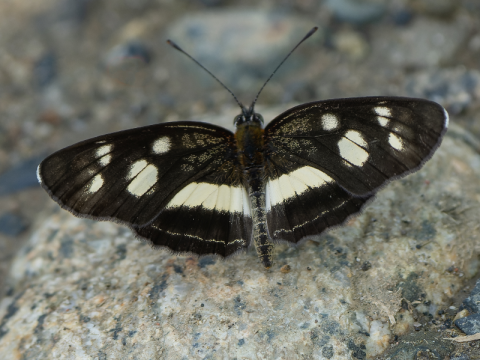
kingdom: Animalia
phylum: Arthropoda
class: Insecta
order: Lepidoptera
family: Nymphalidae
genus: Eresia
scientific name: Eresia clio
